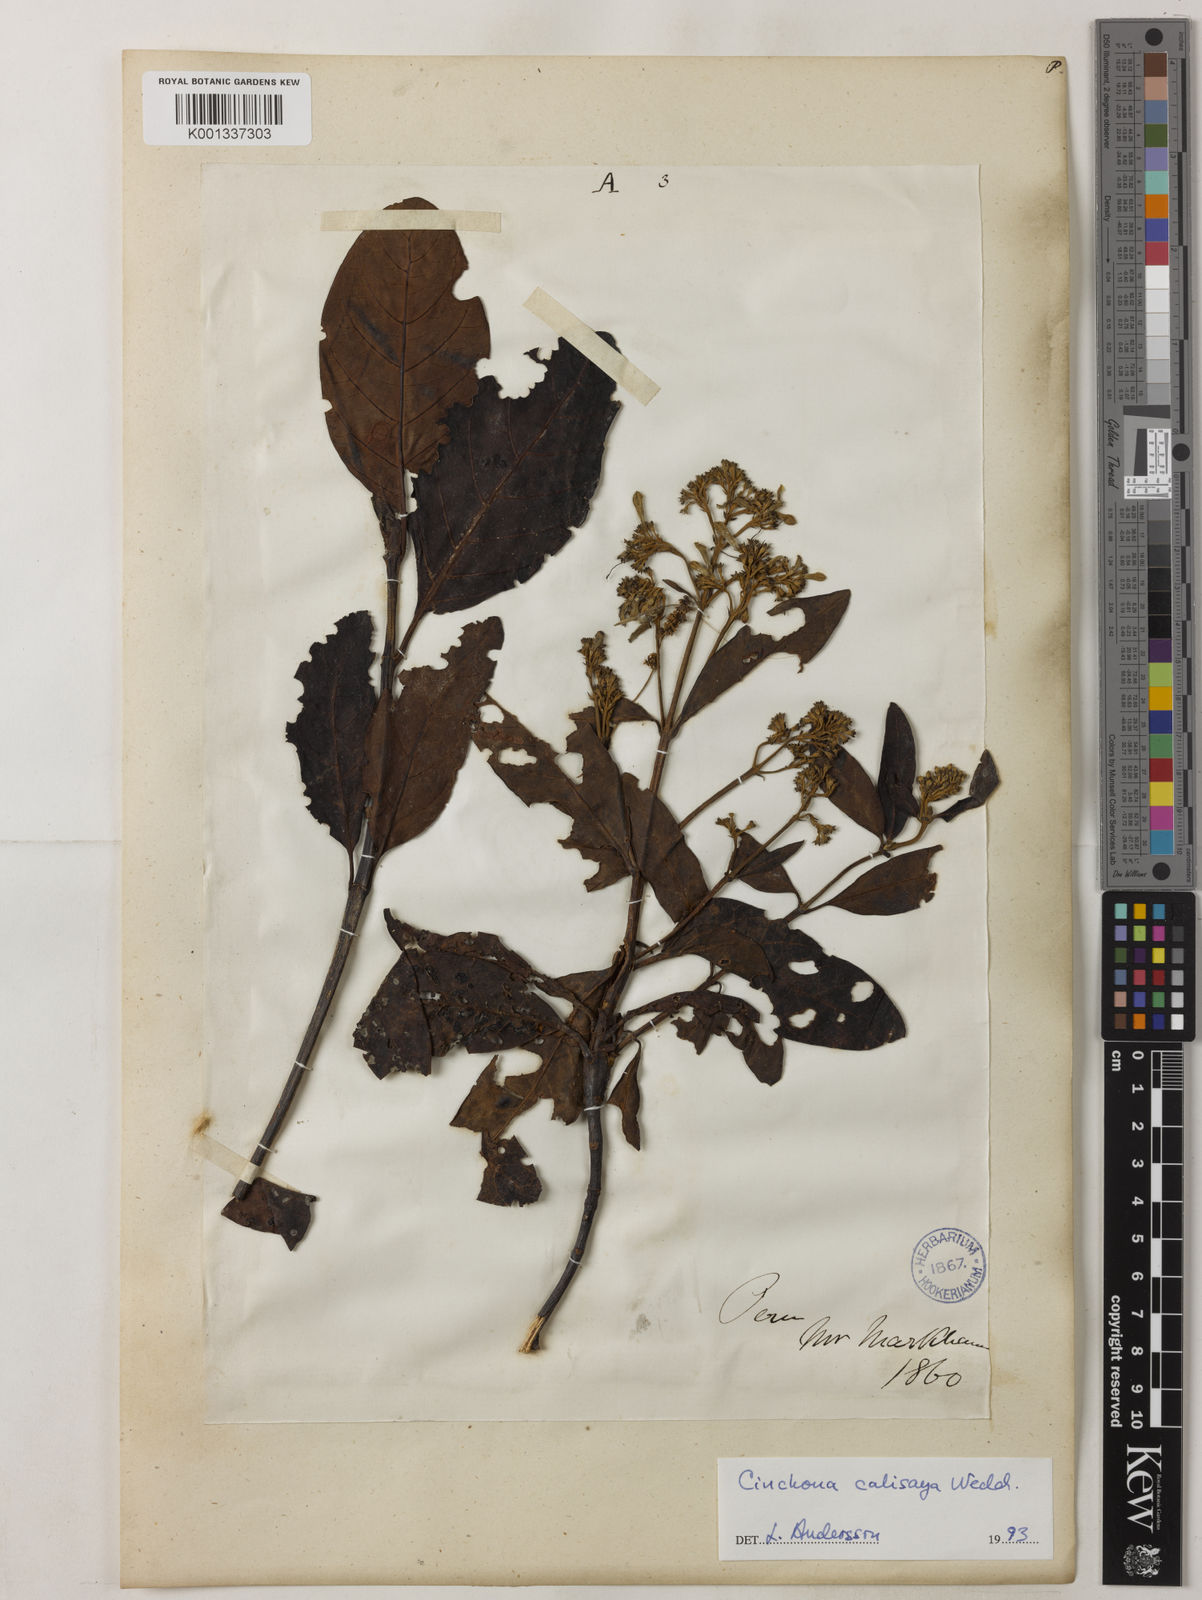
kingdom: Plantae
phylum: Tracheophyta
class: Magnoliopsida
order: Gentianales
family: Rubiaceae
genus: Cinchona
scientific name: Cinchona calisaya
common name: Ledgerbark
